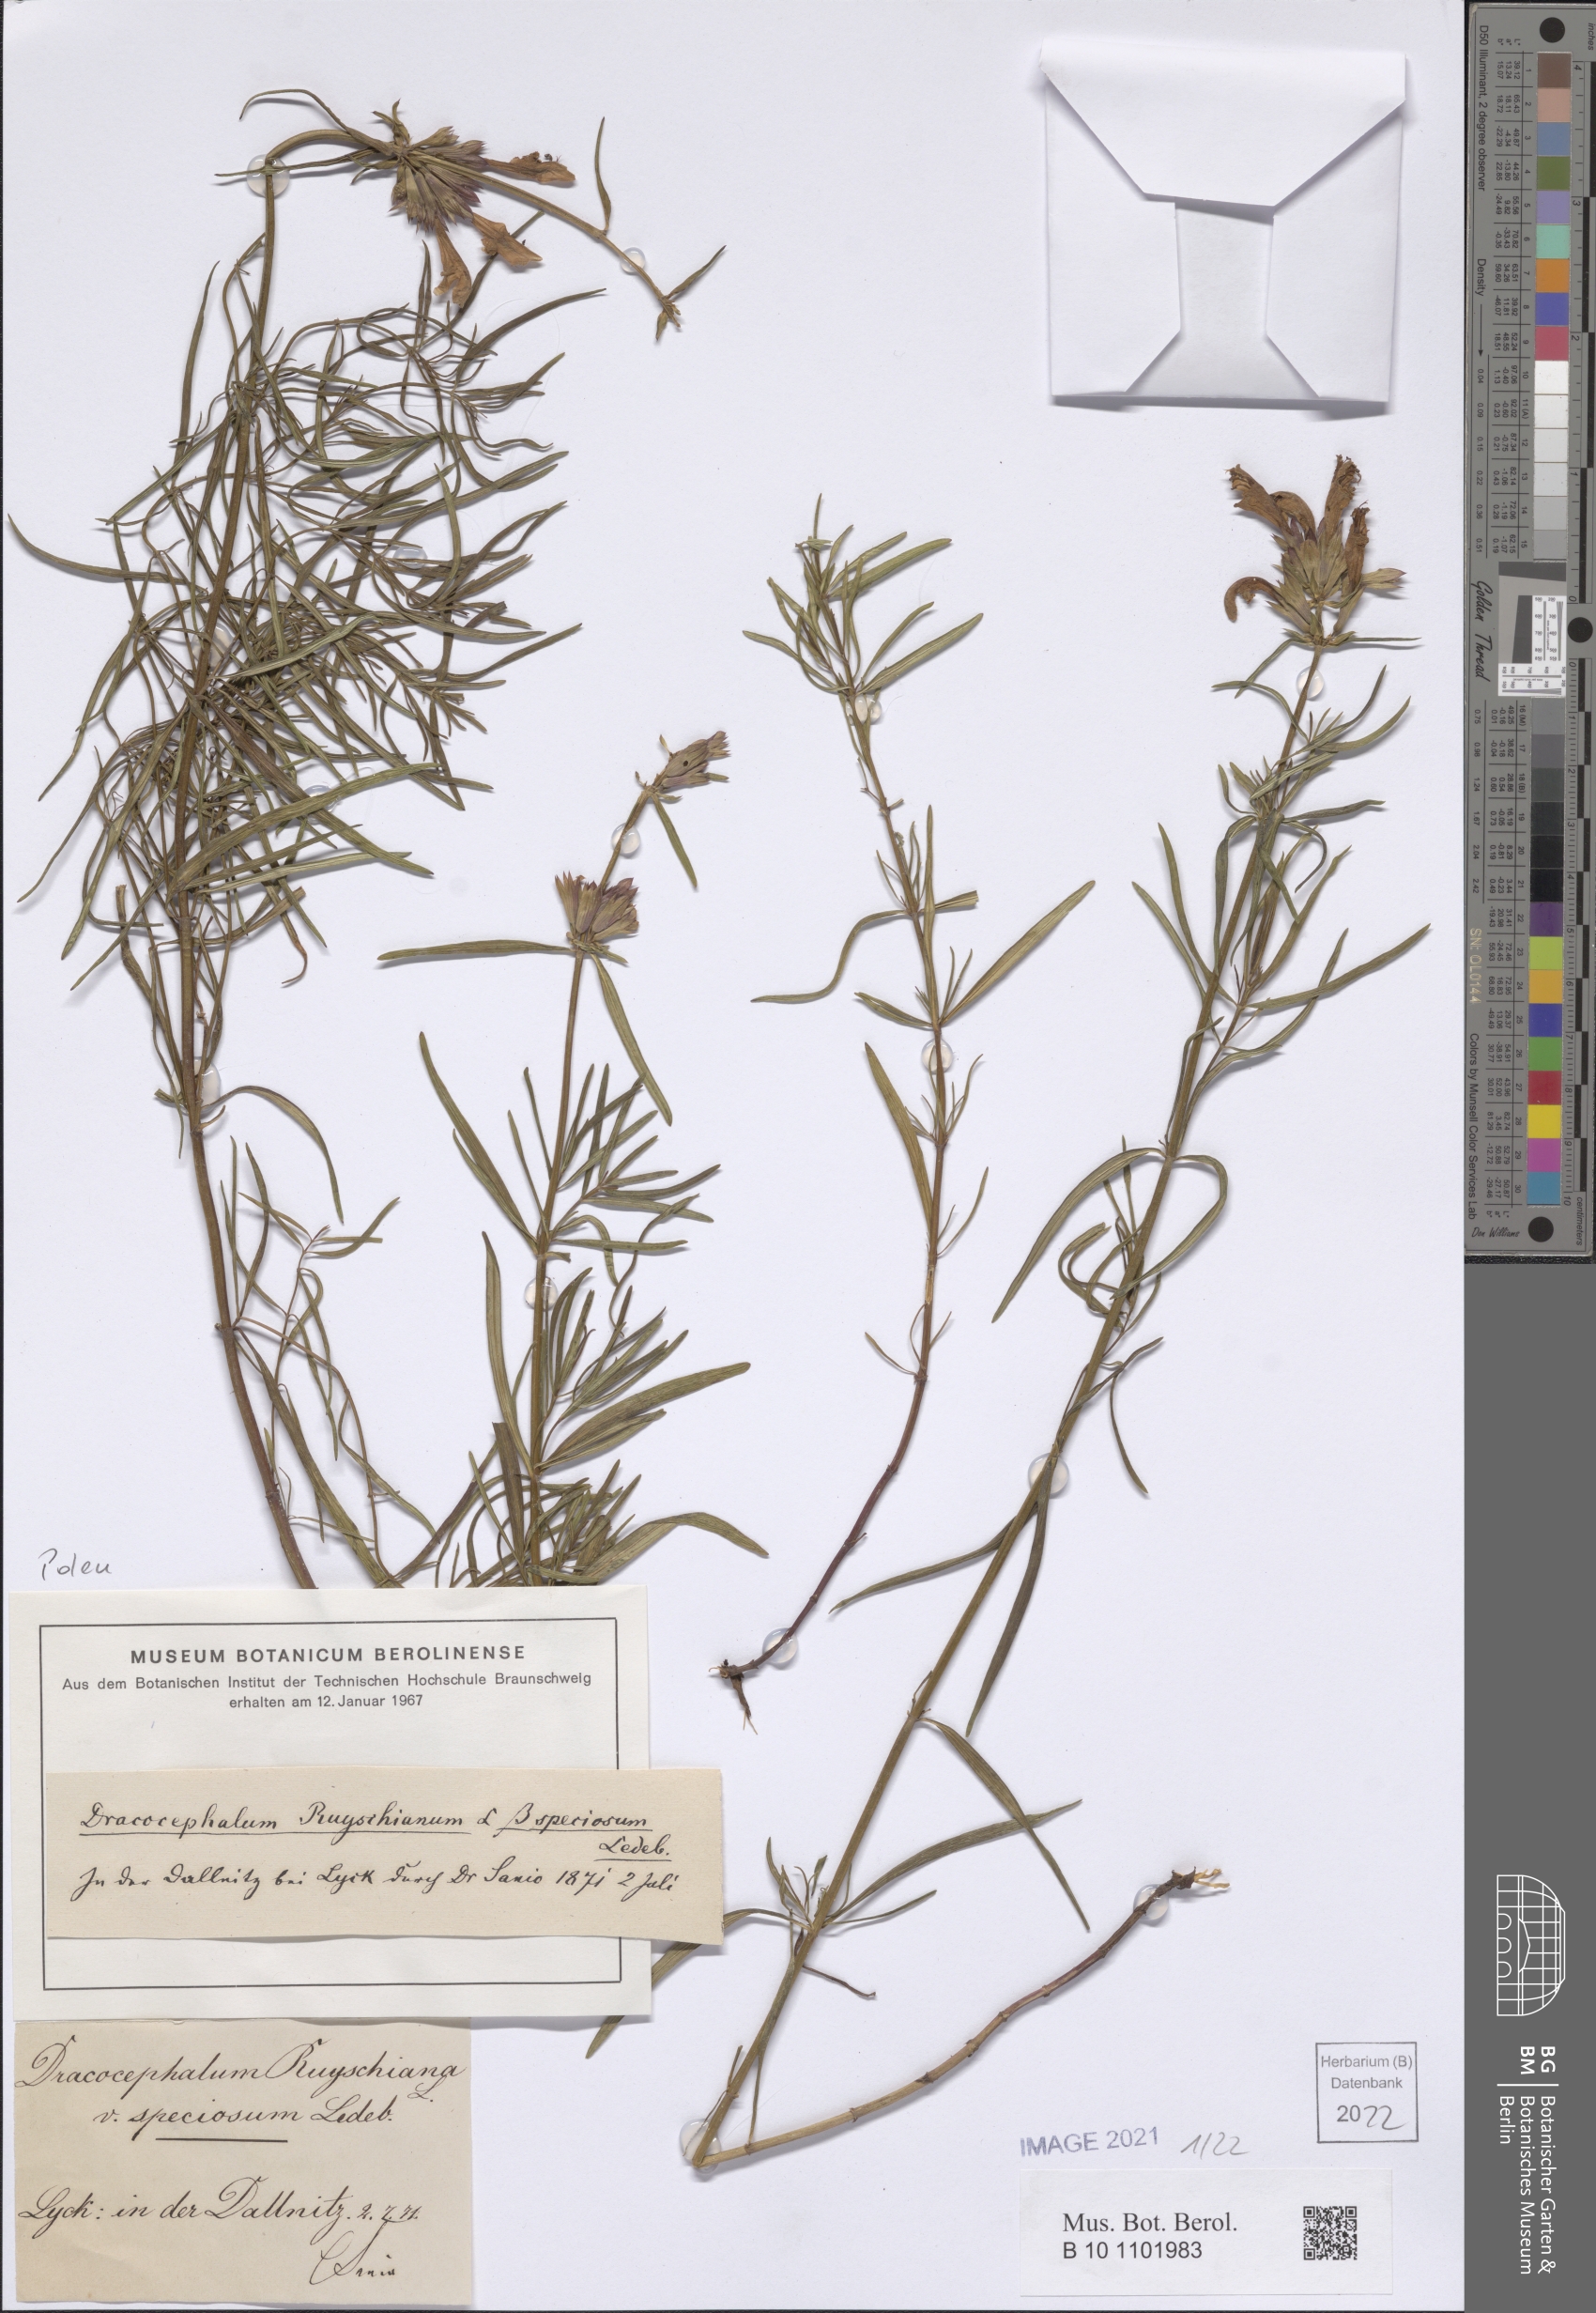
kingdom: Plantae
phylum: Tracheophyta
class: Magnoliopsida
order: Lamiales
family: Lamiaceae
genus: Dracocephalum
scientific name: Dracocephalum ruyschiana
